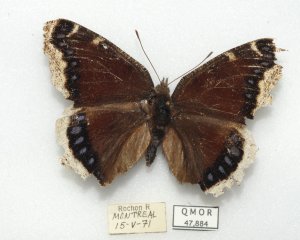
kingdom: Animalia
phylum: Arthropoda
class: Insecta
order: Lepidoptera
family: Nymphalidae
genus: Nymphalis
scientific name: Nymphalis antiopa
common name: Mourning Cloak
